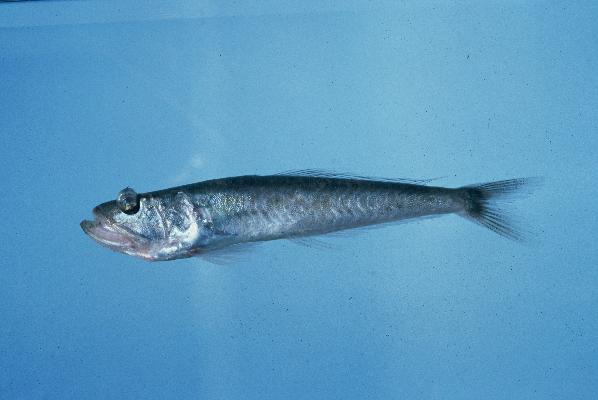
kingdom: Animalia
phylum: Chordata
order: Perciformes
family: Champsodontidae
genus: Champsodon
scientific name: Champsodon capensis
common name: Gaper
